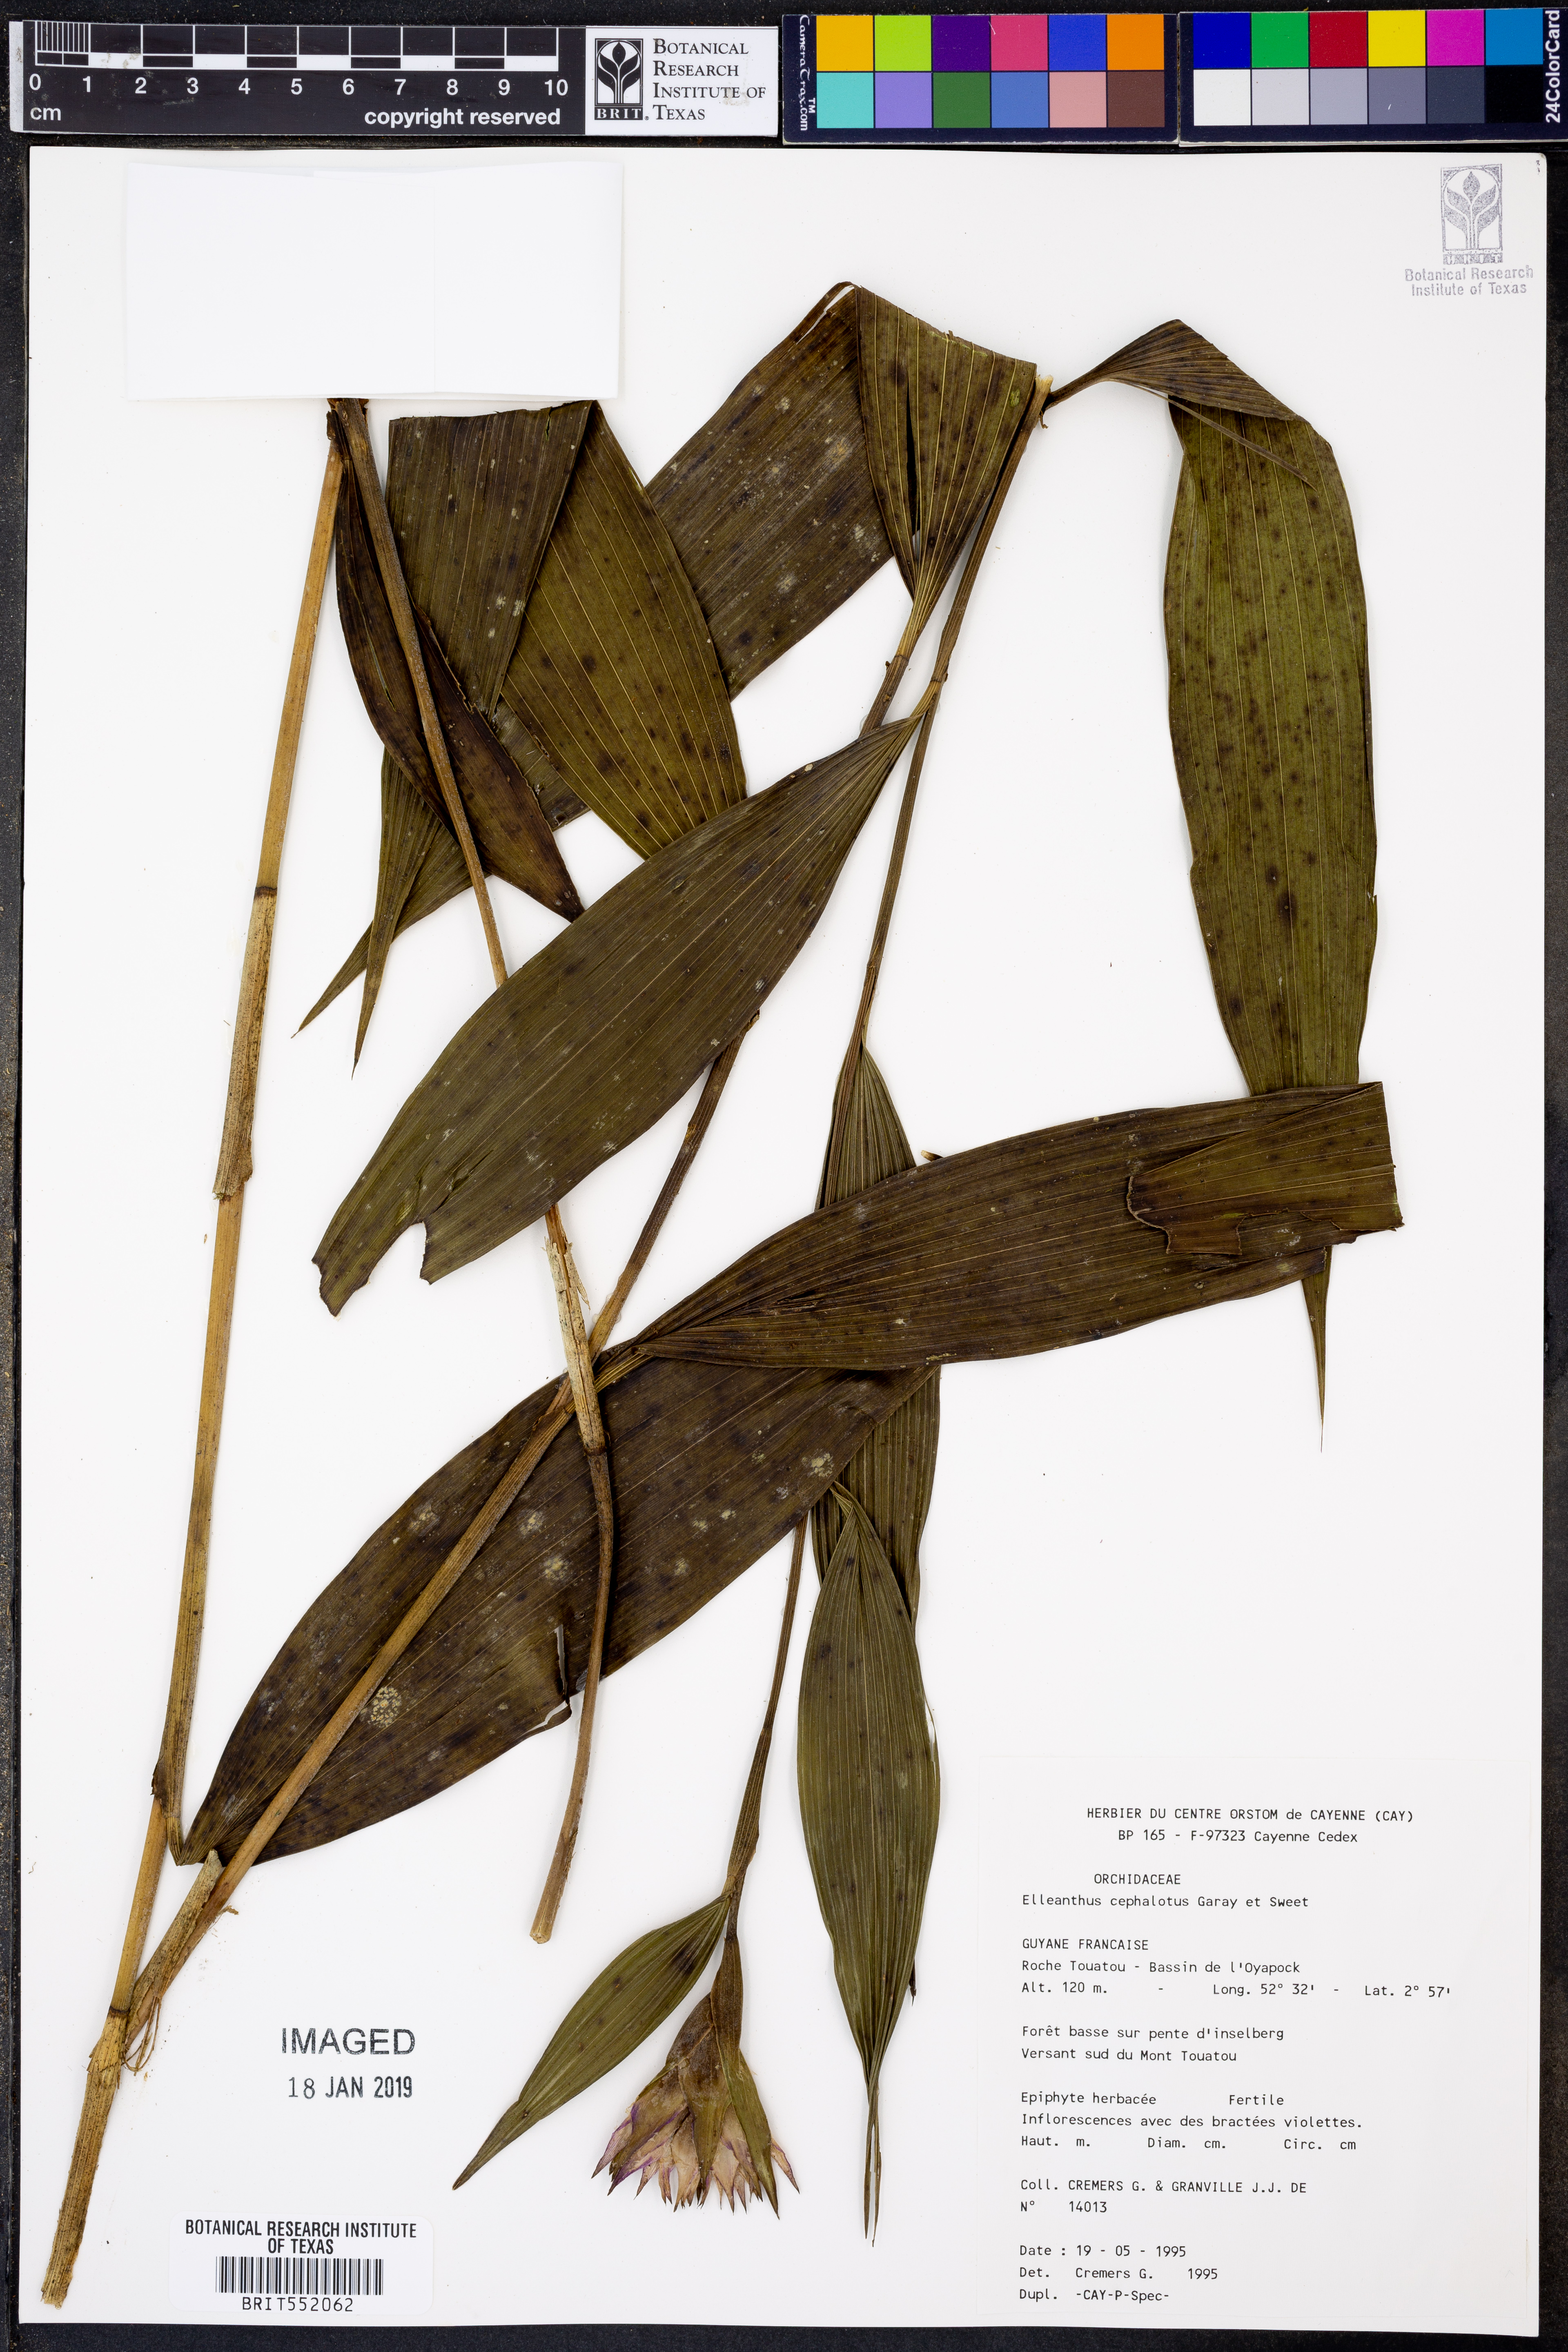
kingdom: Plantae
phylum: Tracheophyta
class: Liliopsida
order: Asparagales
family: Orchidaceae
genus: Elleanthus
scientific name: Elleanthus cephalotus
